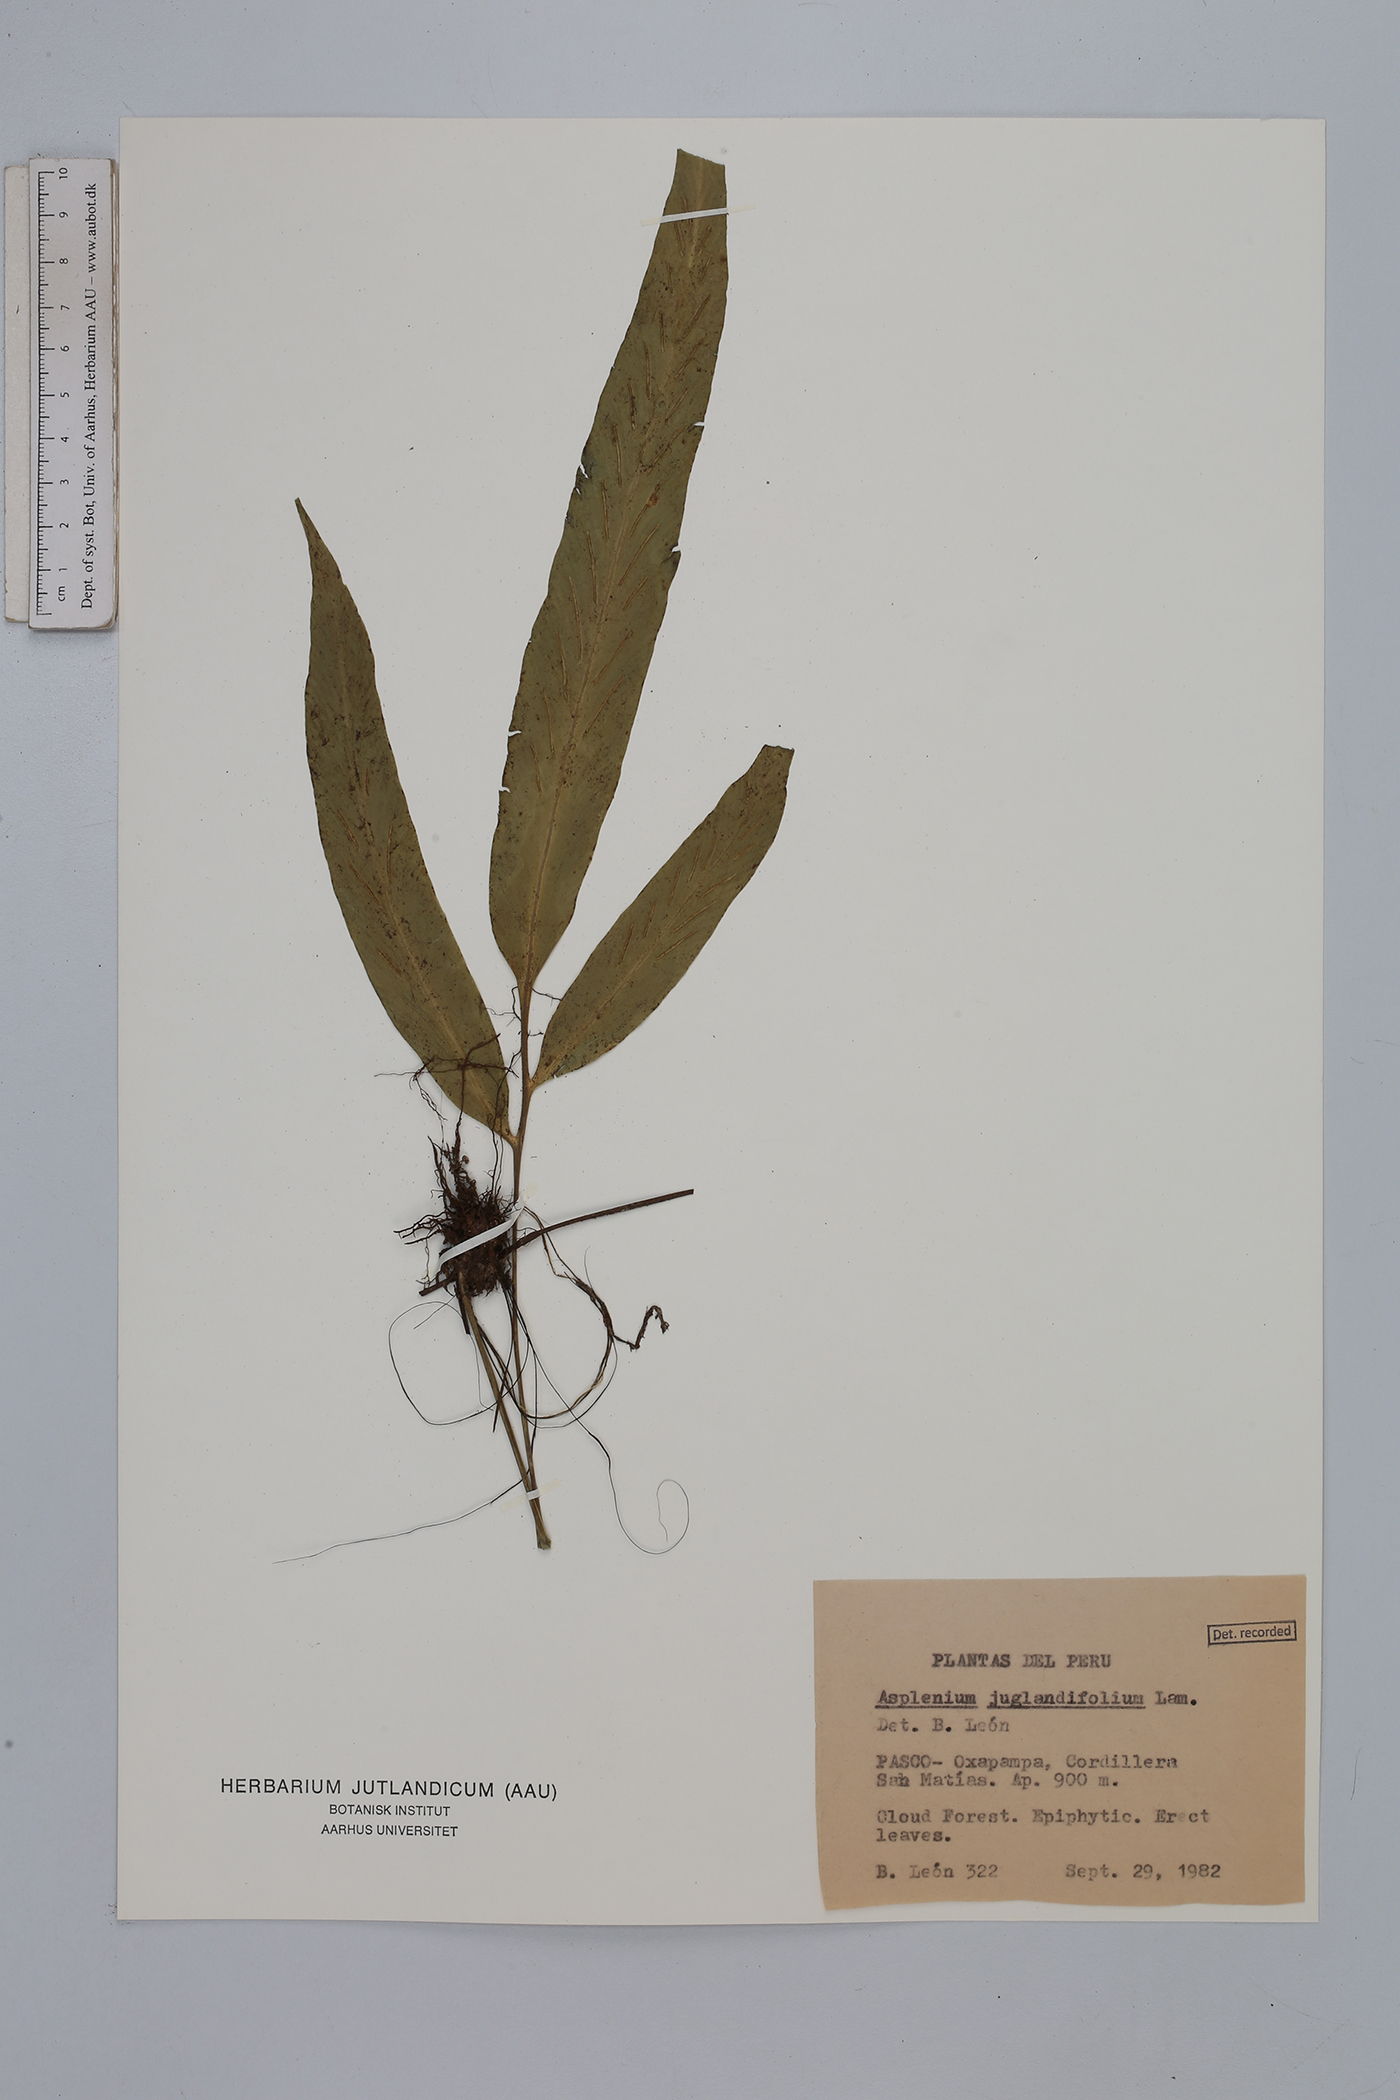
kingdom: Plantae
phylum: Tracheophyta
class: Polypodiopsida
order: Polypodiales
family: Aspleniaceae
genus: Asplenium
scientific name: Asplenium juglandifolium
